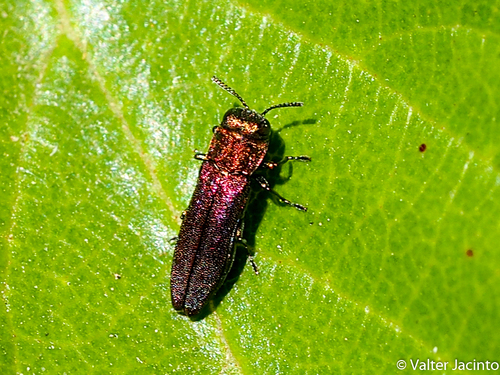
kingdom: Animalia
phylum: Arthropoda
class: Insecta
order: Coleoptera
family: Buprestidae
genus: Agrilus
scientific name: Agrilus cuprescens
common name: Rose stem girdler
